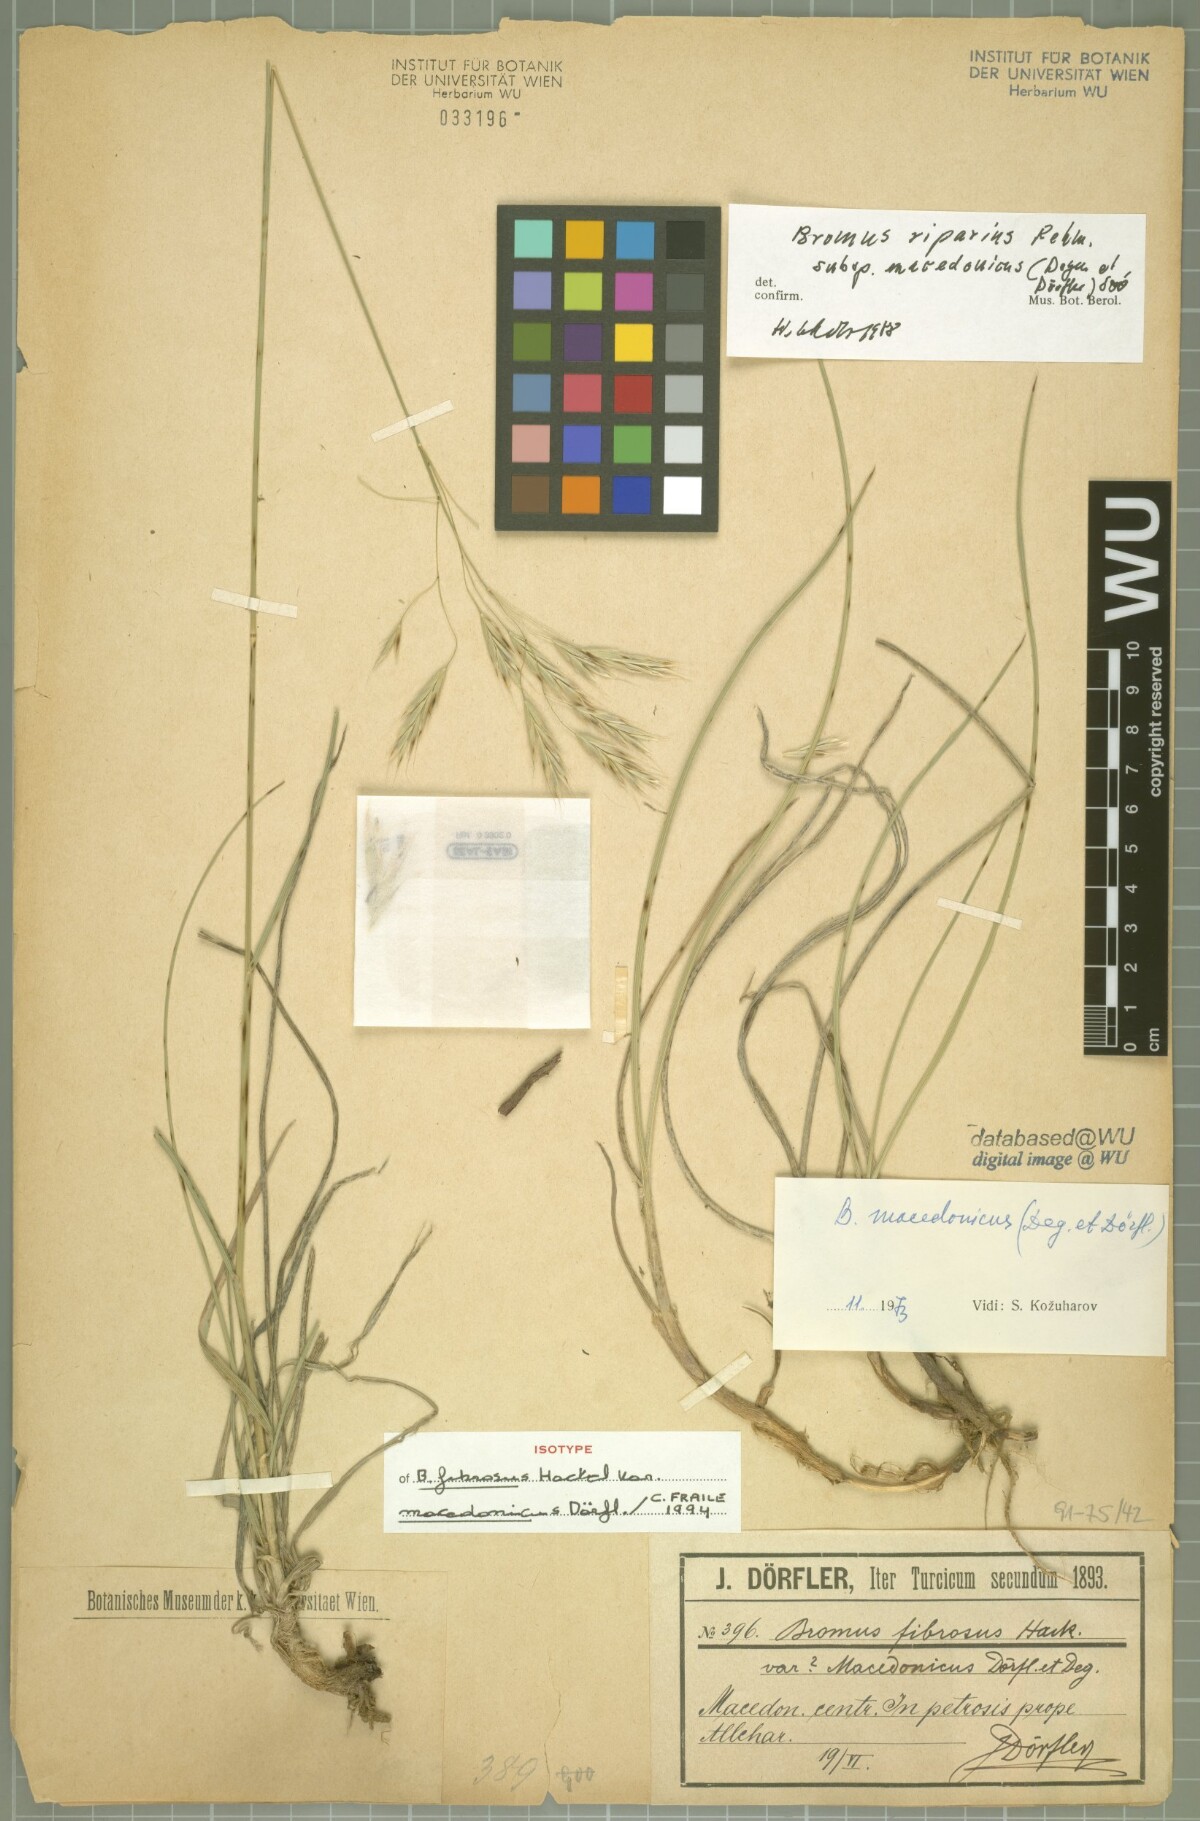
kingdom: Plantae
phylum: Tracheophyta
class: Liliopsida
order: Poales
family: Poaceae
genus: Bromus
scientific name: Bromus riparius
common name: Meadow brome
